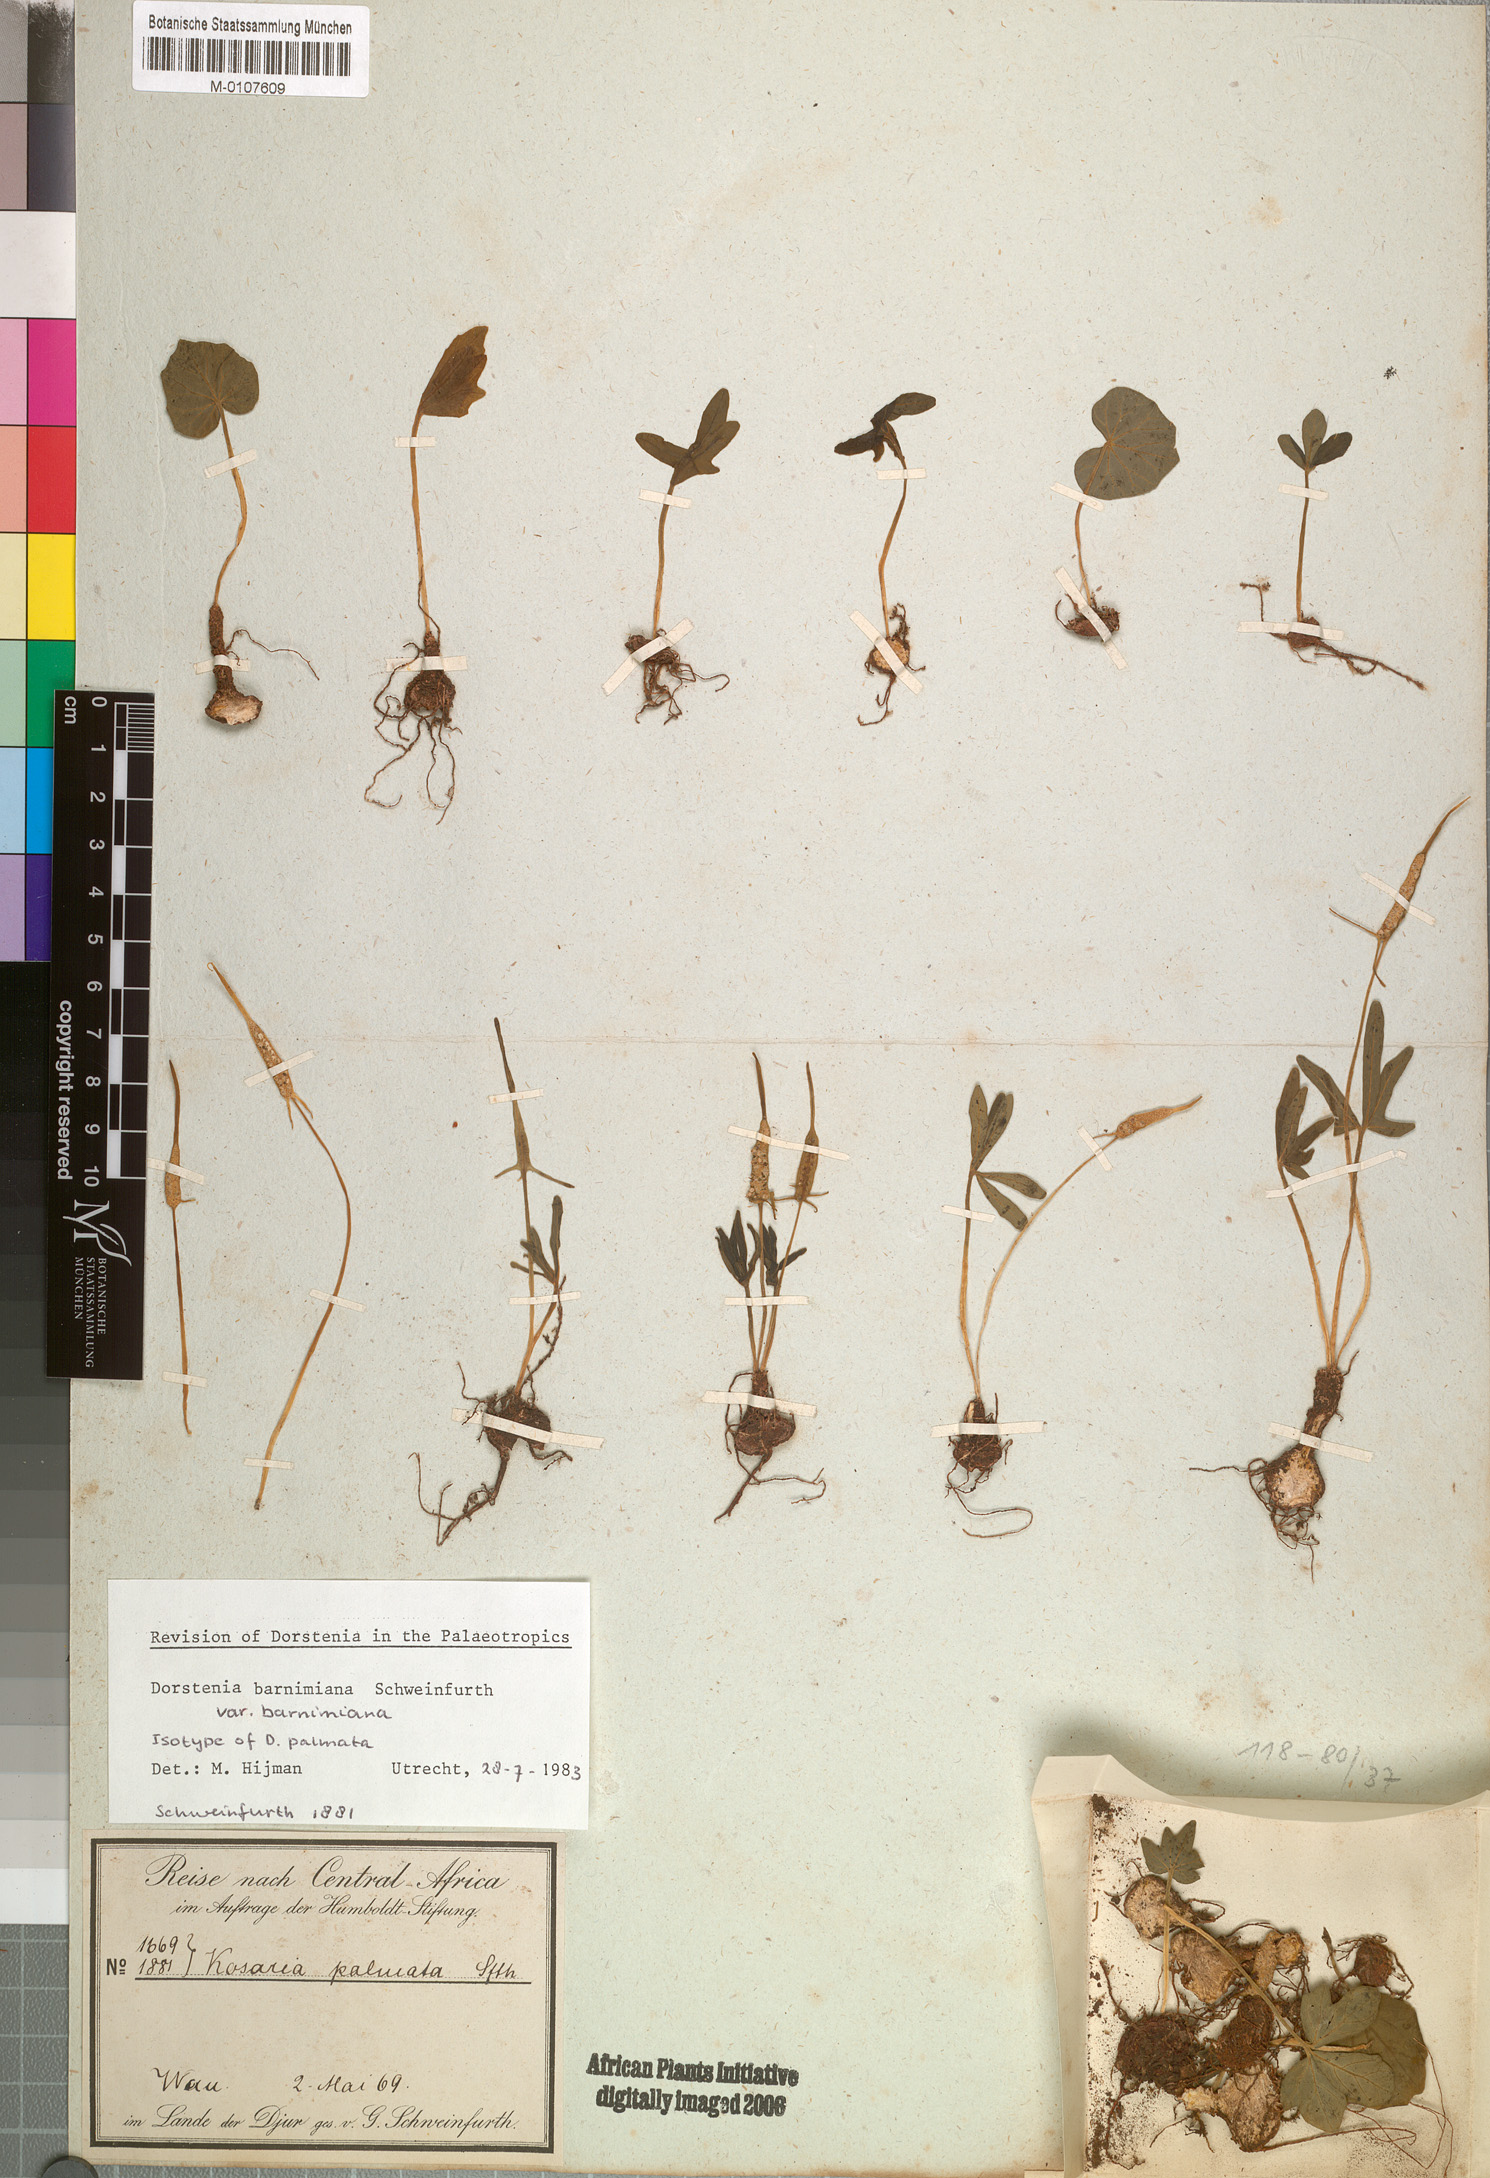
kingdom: Plantae
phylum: Tracheophyta
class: Magnoliopsida
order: Rosales
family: Moraceae
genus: Dorstenia
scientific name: Dorstenia barnimiana
